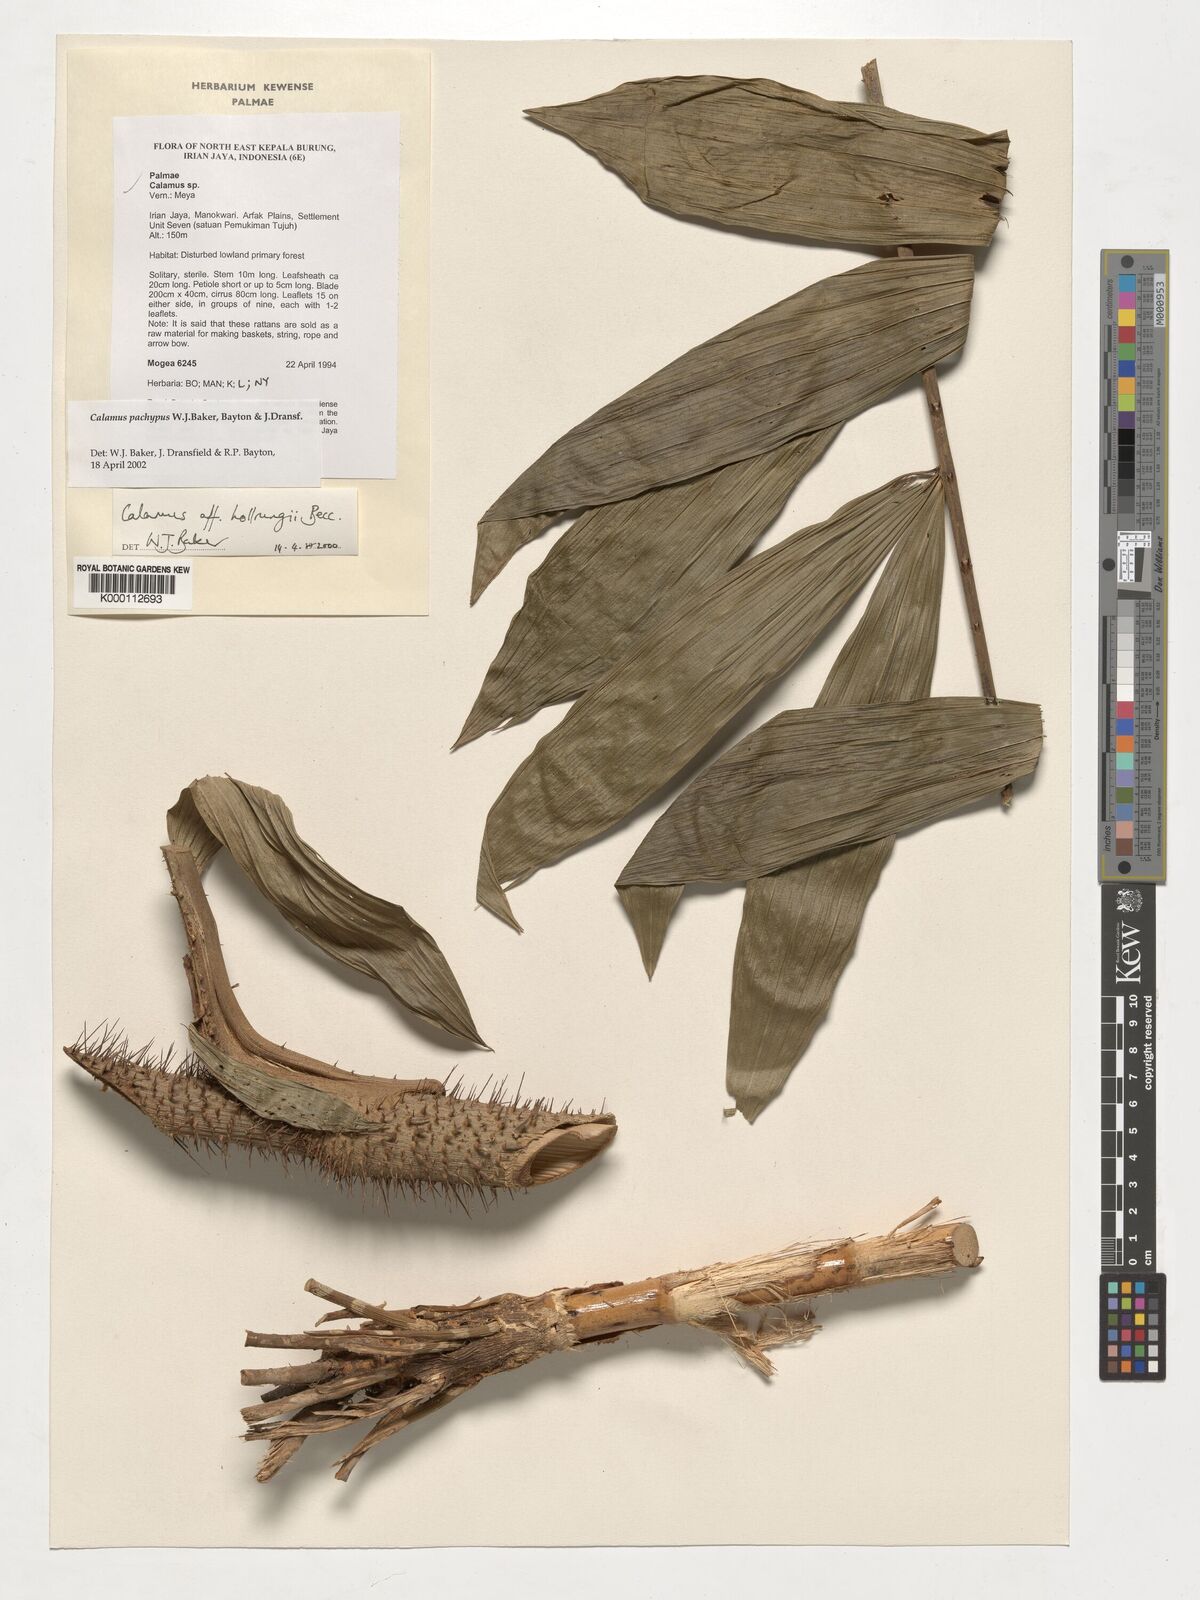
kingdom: Plantae
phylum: Tracheophyta
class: Liliopsida
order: Arecales
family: Arecaceae
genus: Calamus
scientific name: Calamus
